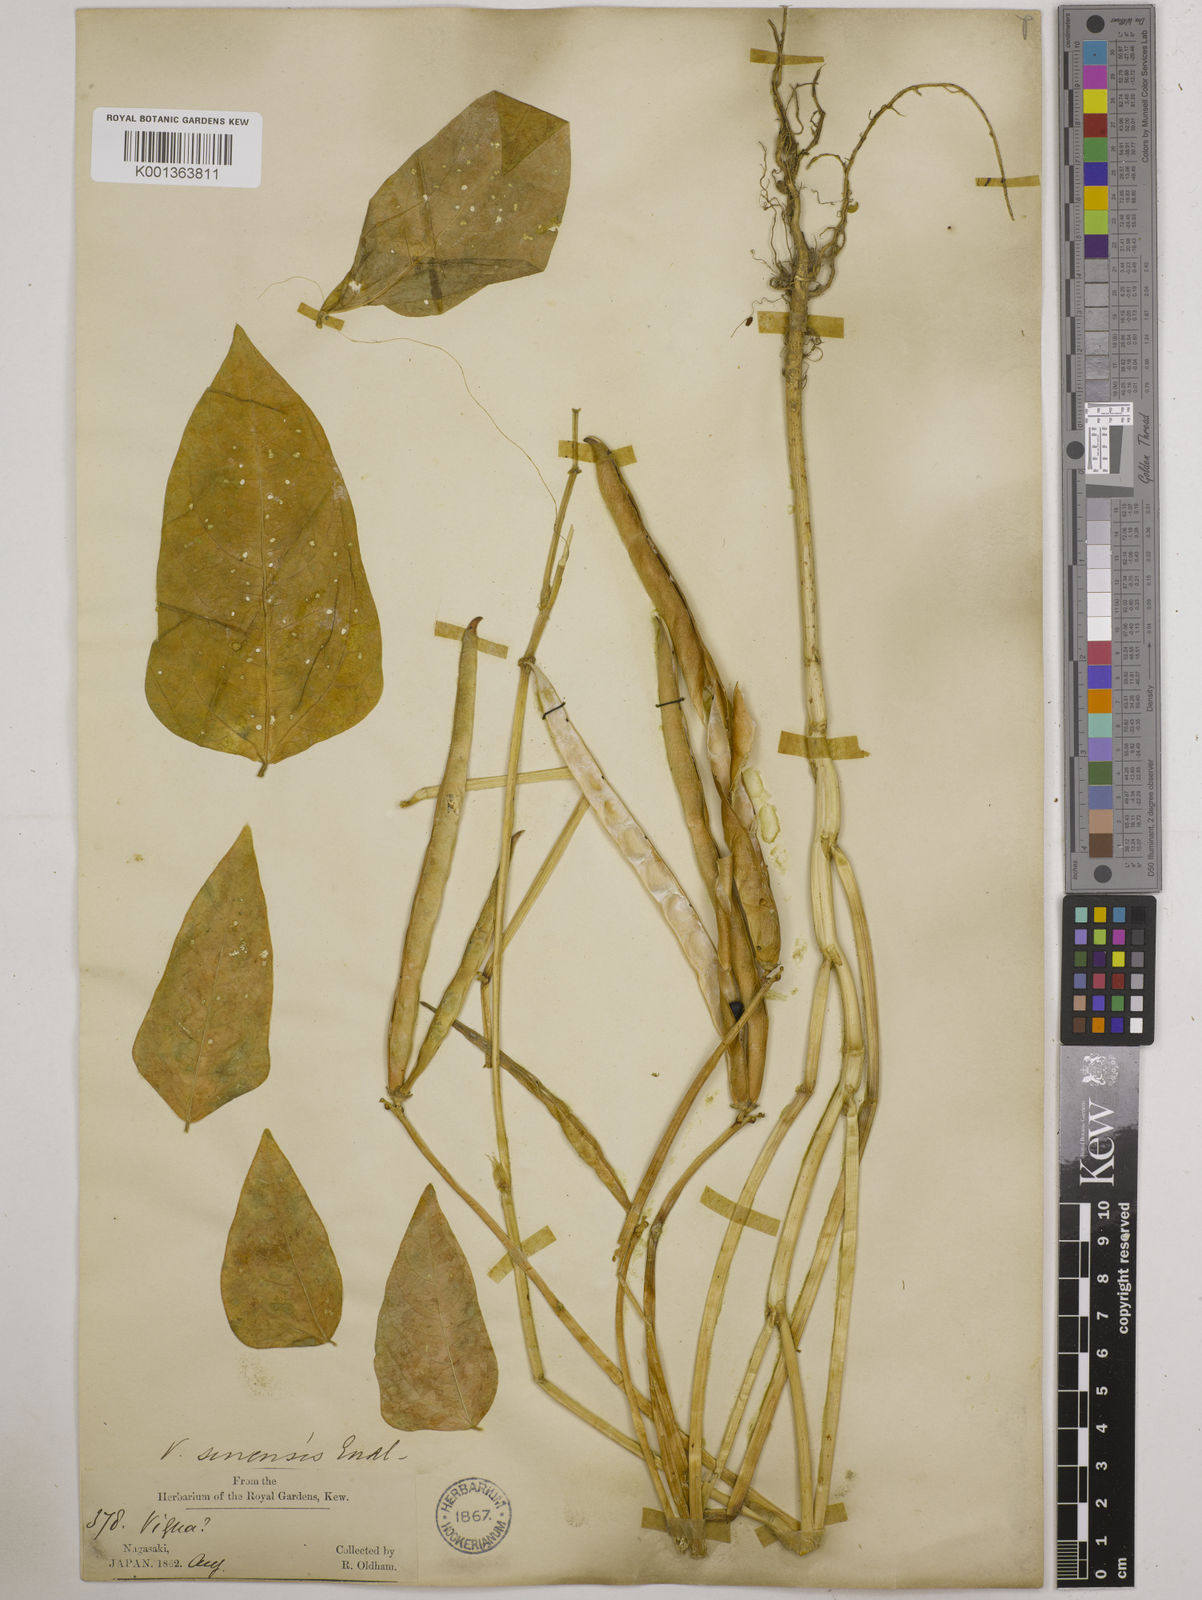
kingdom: Plantae
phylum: Tracheophyta
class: Magnoliopsida
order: Fabales
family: Fabaceae
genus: Vigna
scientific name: Vigna
